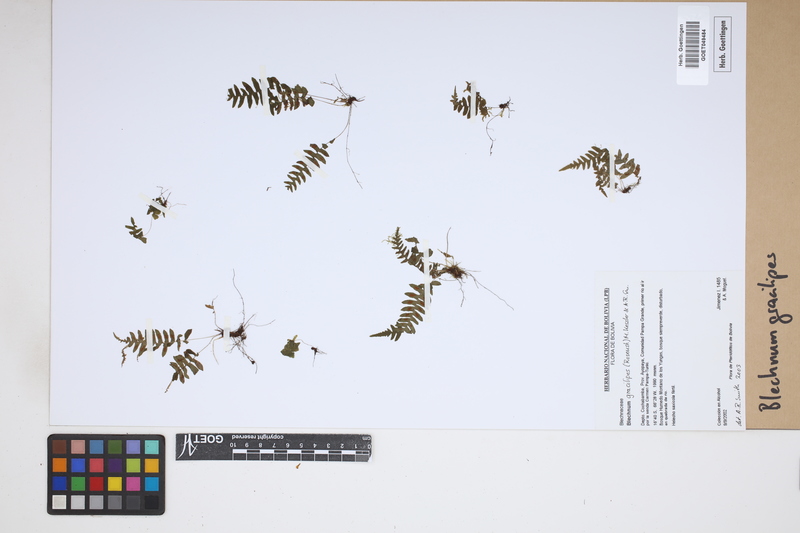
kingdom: Plantae
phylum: Tracheophyta
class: Polypodiopsida
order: Polypodiales
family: Blechnaceae
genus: Blechnum
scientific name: Blechnum gracilipes
